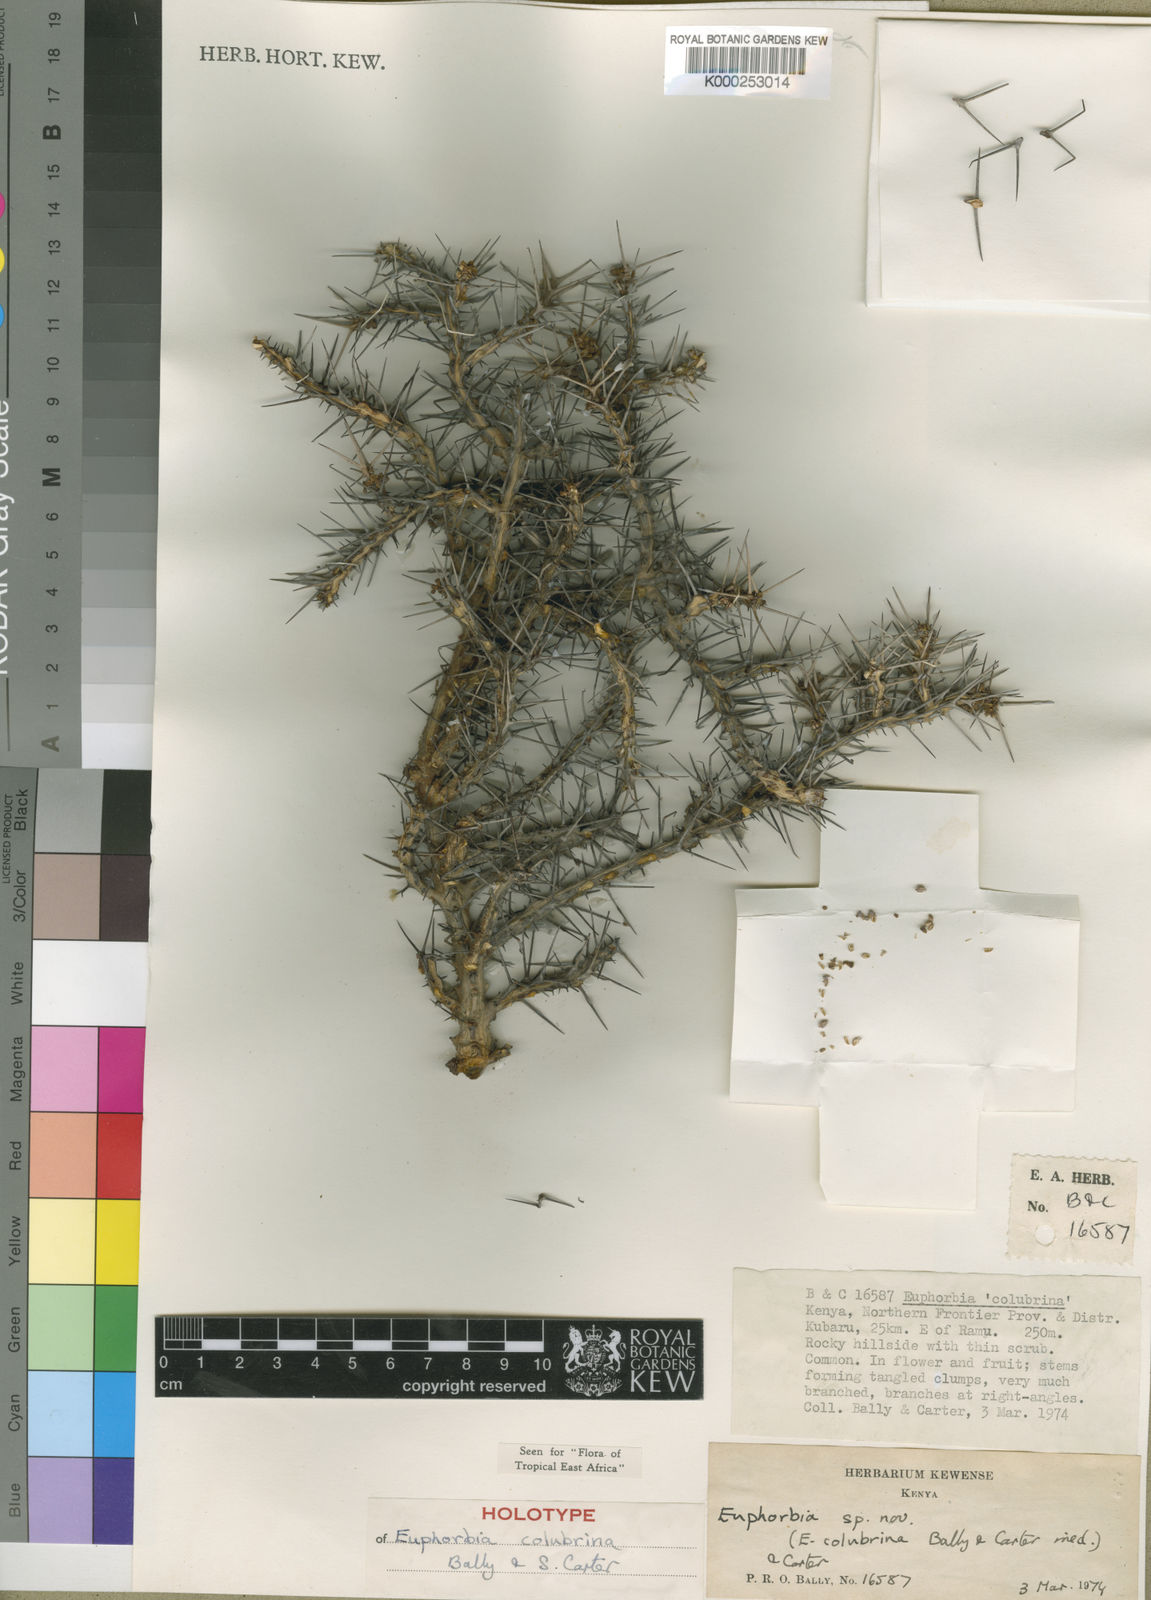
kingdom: Plantae
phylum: Tracheophyta
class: Magnoliopsida
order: Malpighiales
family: Euphorbiaceae
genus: Euphorbia
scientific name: Euphorbia colubrina
